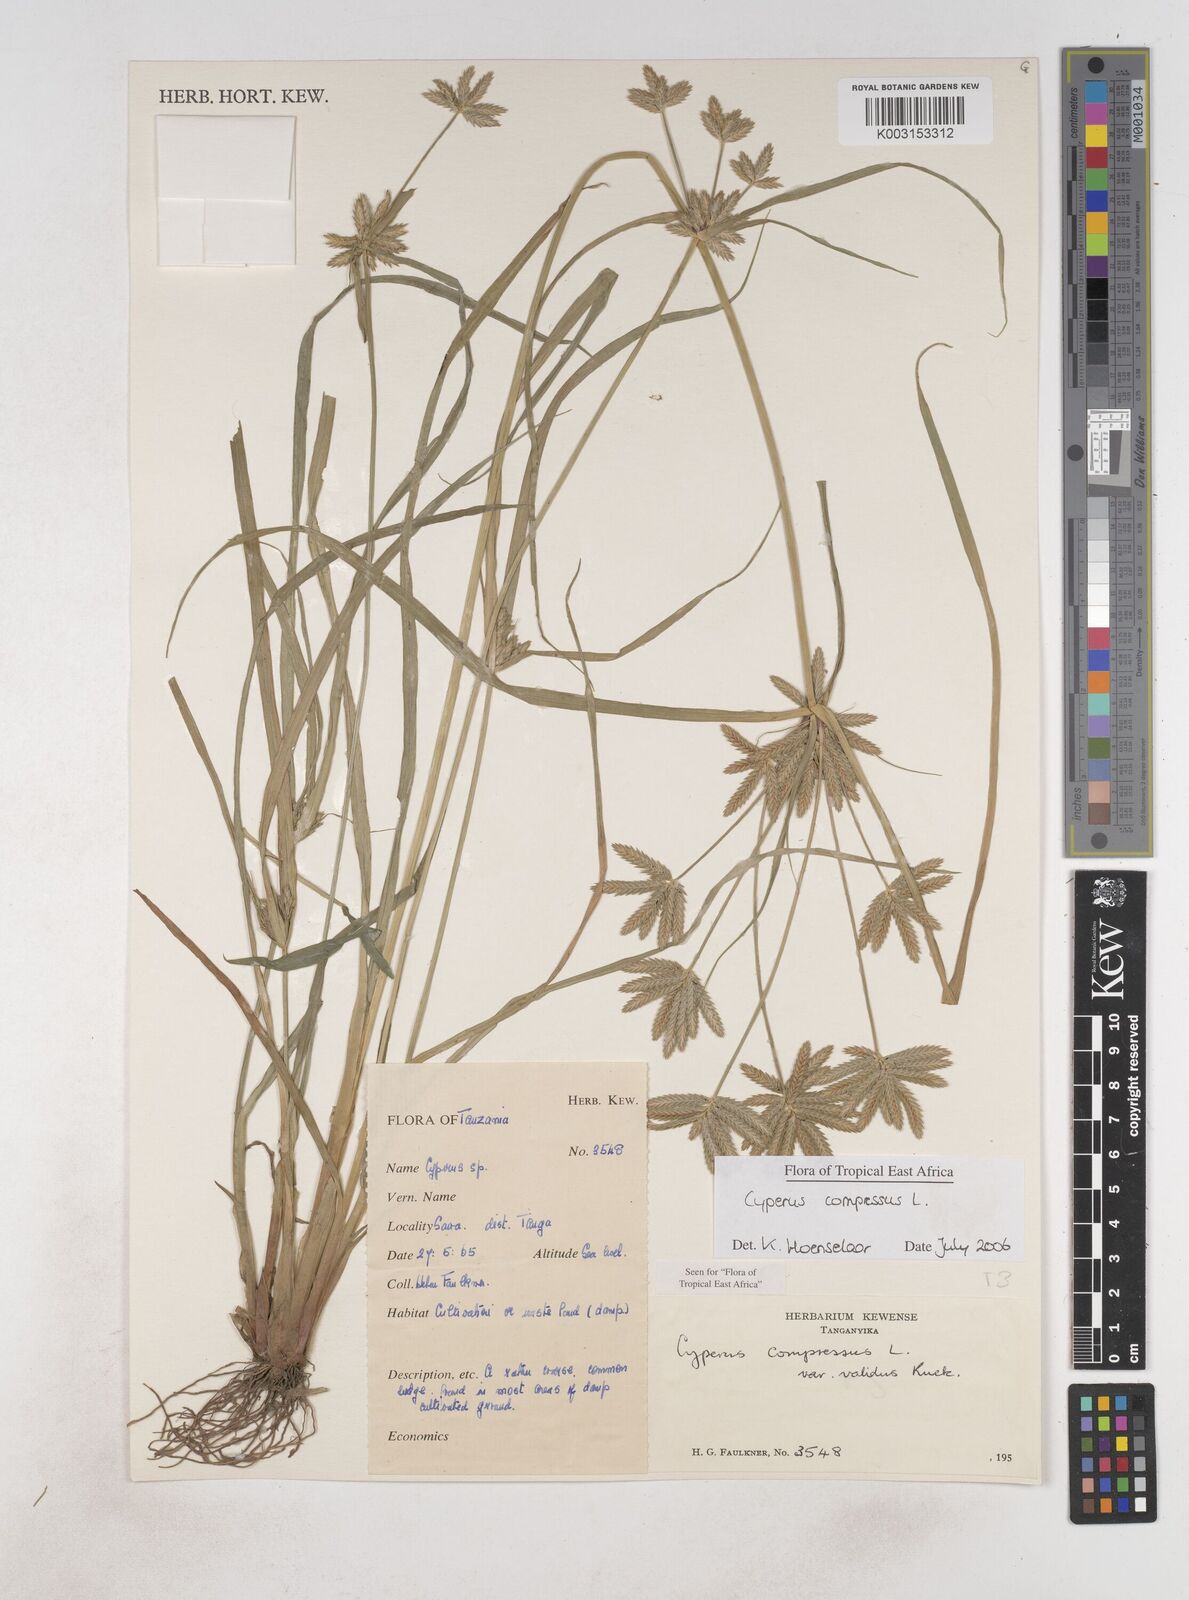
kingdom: Plantae
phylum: Tracheophyta
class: Liliopsida
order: Poales
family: Cyperaceae
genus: Cyperus
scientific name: Cyperus compressus
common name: Poorland flatsedge
